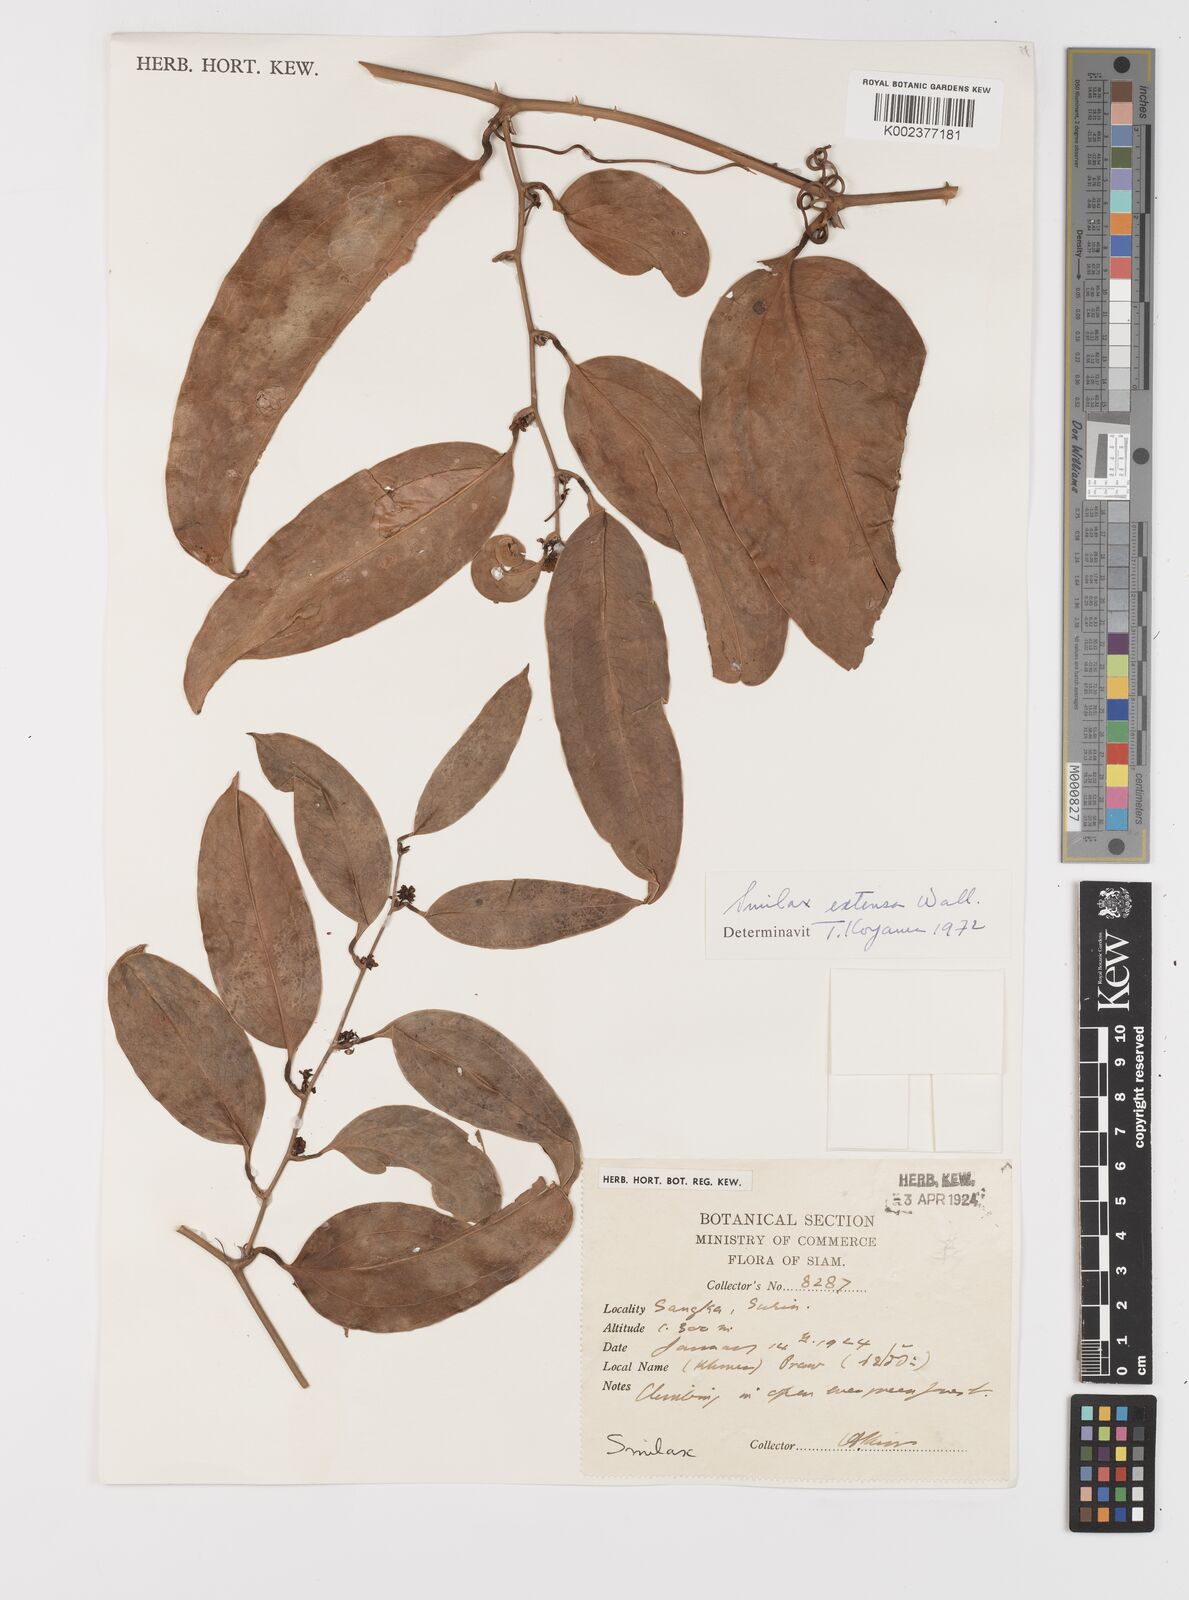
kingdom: Plantae
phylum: Tracheophyta
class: Liliopsida
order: Liliales
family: Smilacaceae
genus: Smilax
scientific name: Smilax extensa
